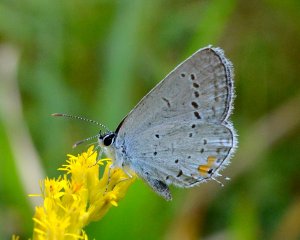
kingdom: Animalia
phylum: Arthropoda
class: Insecta
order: Lepidoptera
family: Lycaenidae
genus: Elkalyce
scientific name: Elkalyce comyntas
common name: Eastern Tailed-Blue
